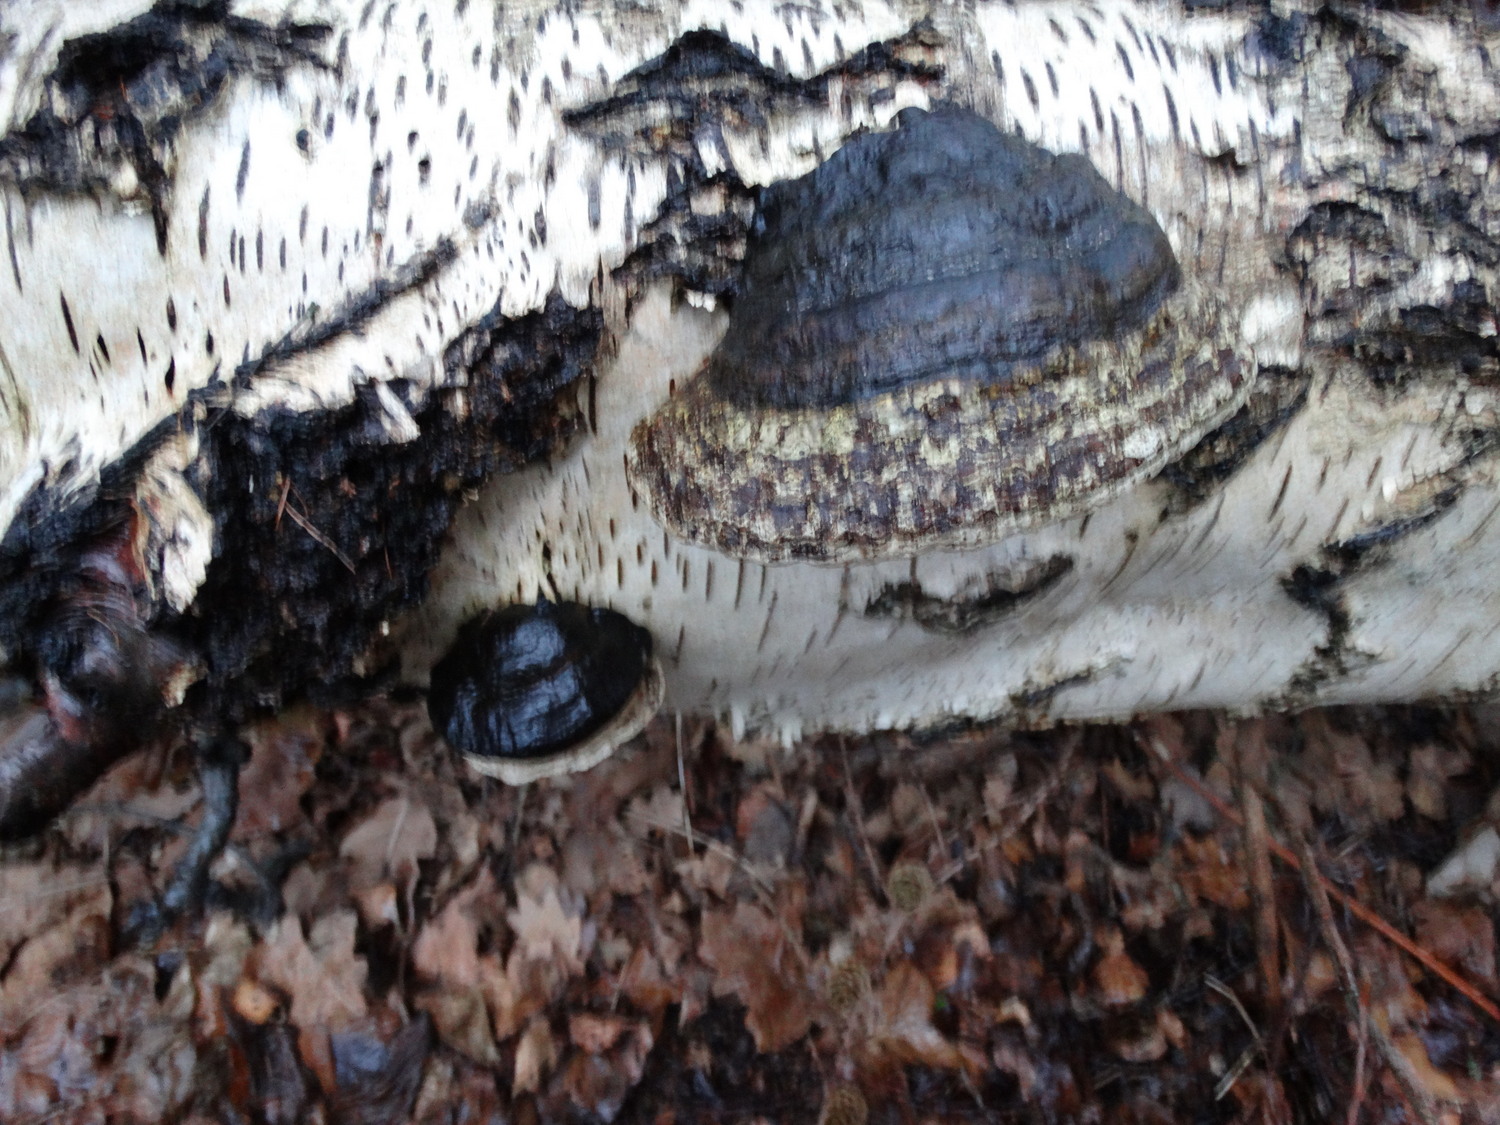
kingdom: Fungi
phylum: Basidiomycota
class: Agaricomycetes
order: Polyporales
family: Polyporaceae
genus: Fomes
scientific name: Fomes fomentarius
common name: tøndersvamp
